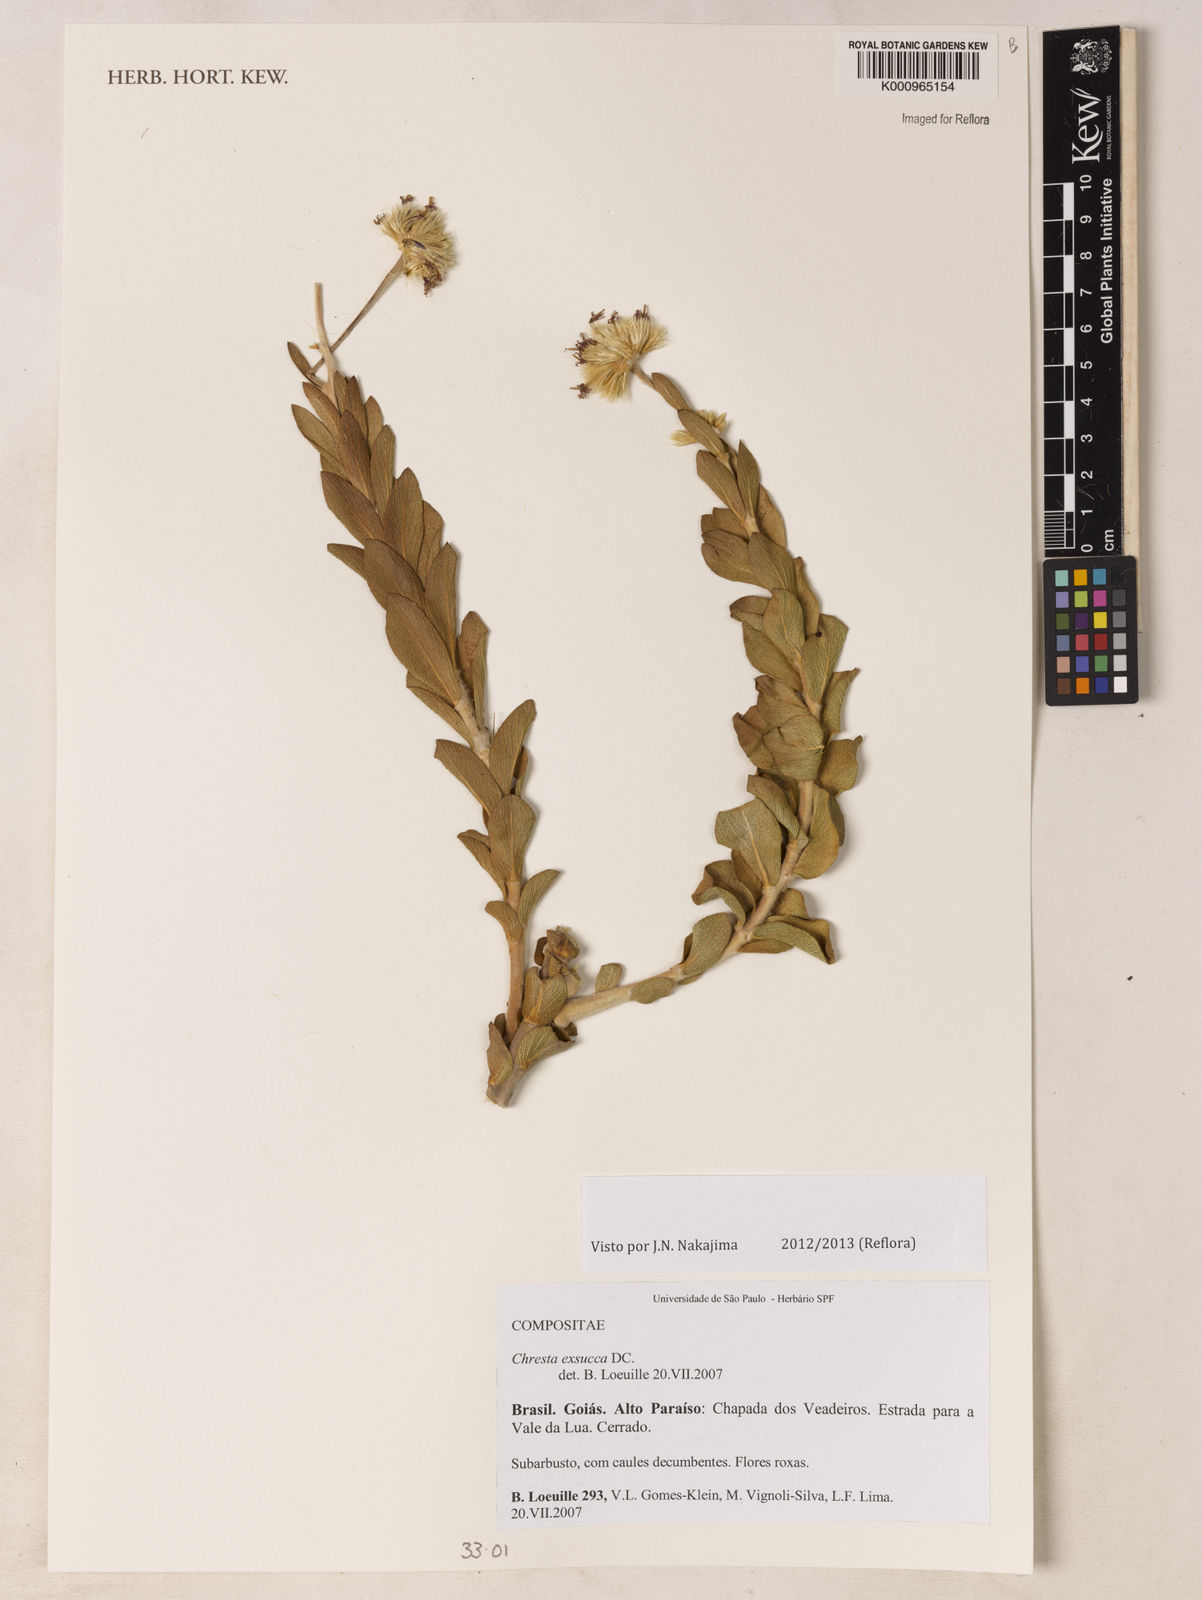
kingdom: Plantae
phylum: Tracheophyta
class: Magnoliopsida
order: Asterales
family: Asteraceae
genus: Chresta
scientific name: Chresta exsucca
